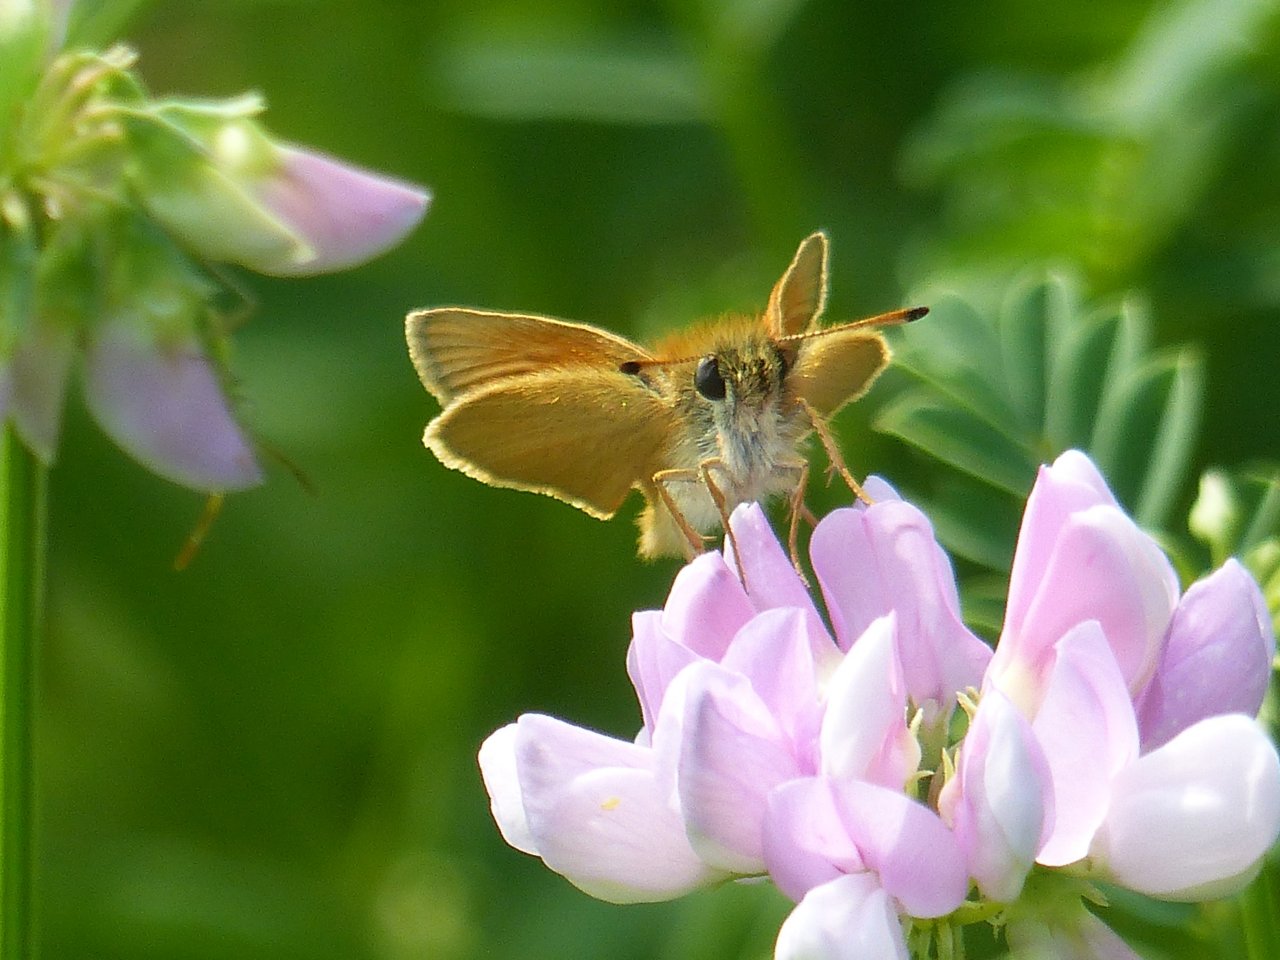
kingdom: Animalia
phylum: Arthropoda
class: Insecta
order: Lepidoptera
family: Hesperiidae
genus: Thymelicus
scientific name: Thymelicus lineola
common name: European Skipper
